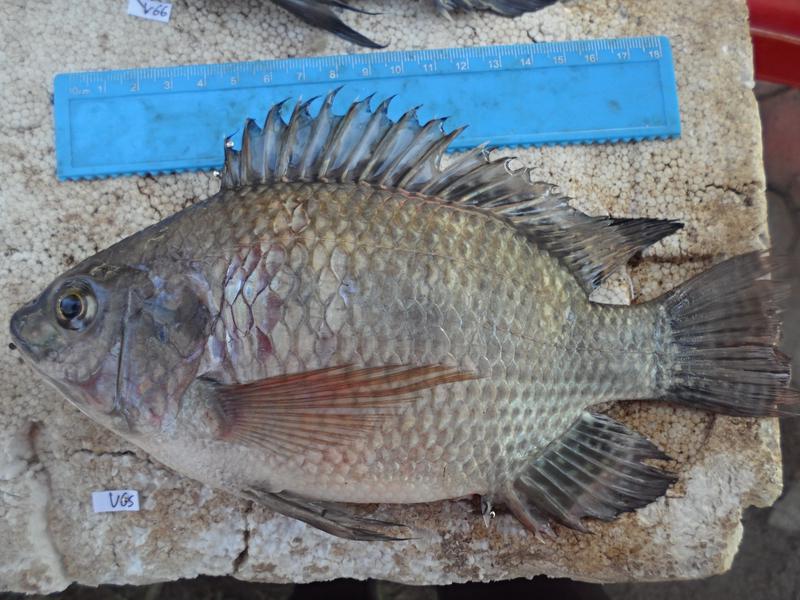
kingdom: Animalia
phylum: Chordata
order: Perciformes
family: Cichlidae
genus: Oreochromis
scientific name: Oreochromis niloticus
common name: Nile tilapia
